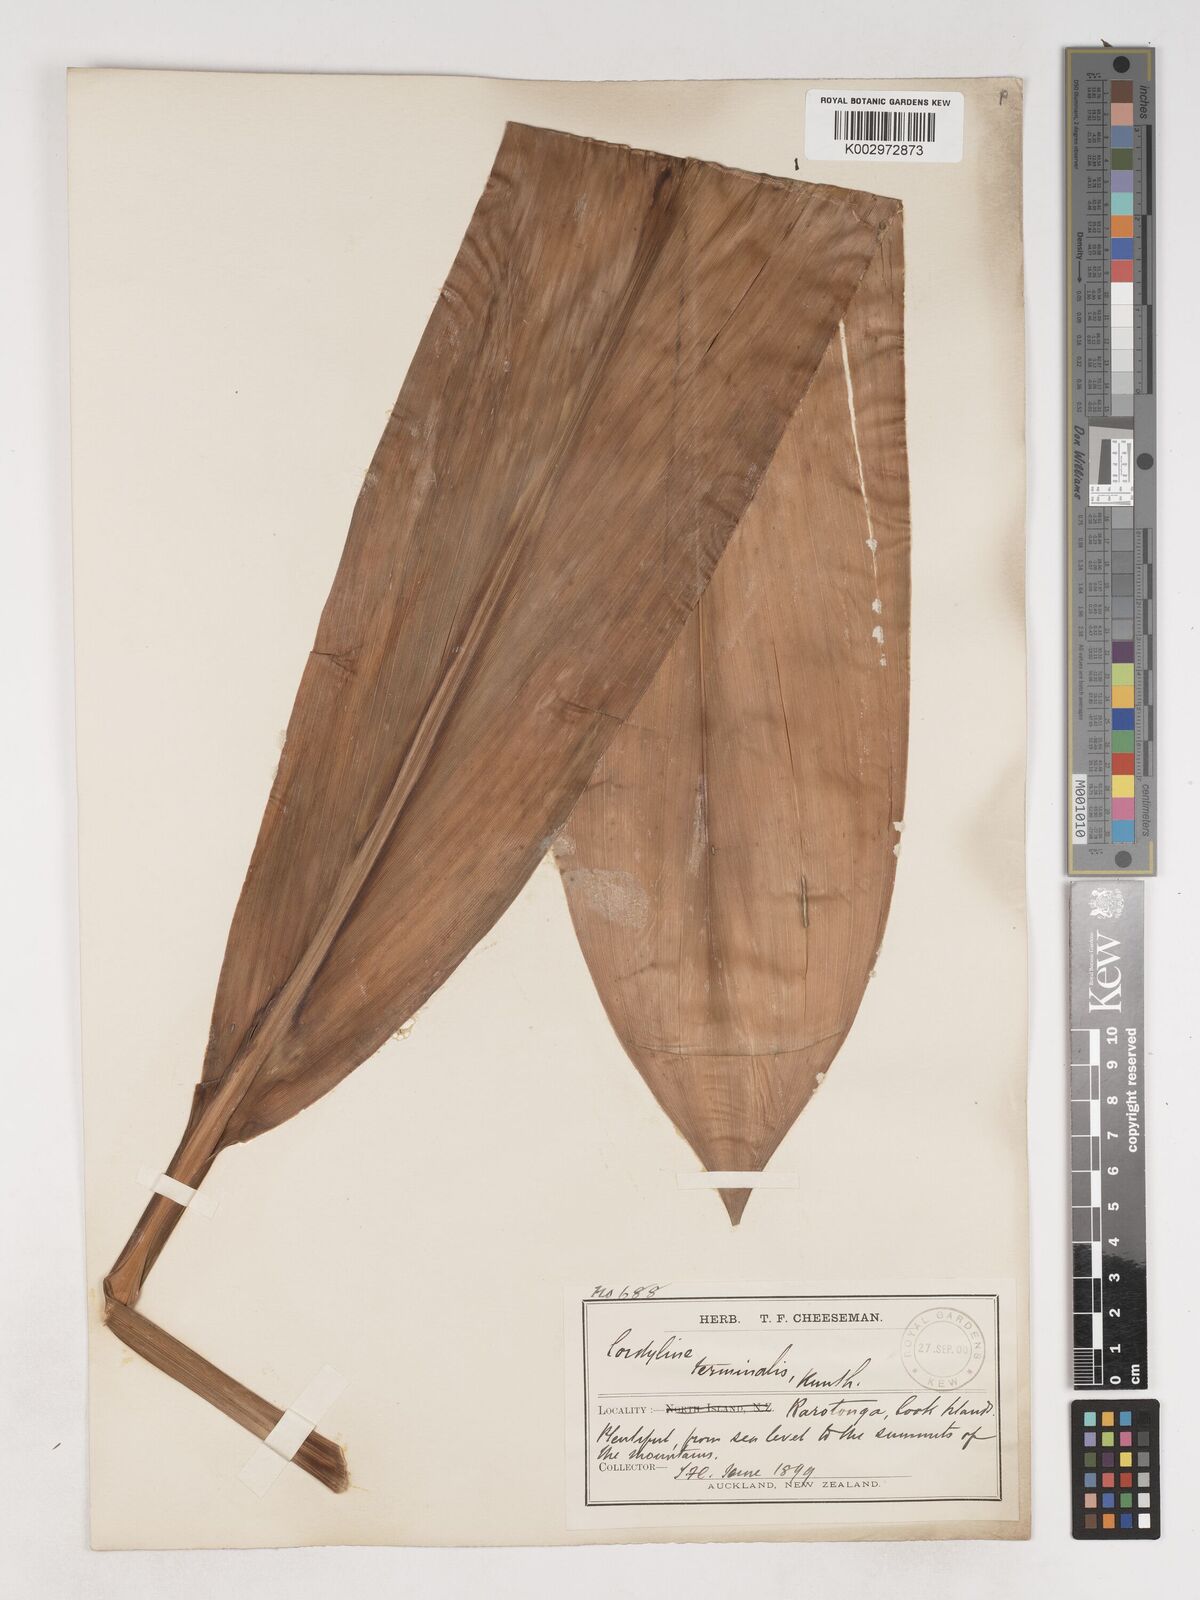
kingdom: Plantae
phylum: Tracheophyta
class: Liliopsida
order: Asparagales
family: Asparagaceae
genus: Cordyline
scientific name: Cordyline fruticosa
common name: Good-luck-plant
